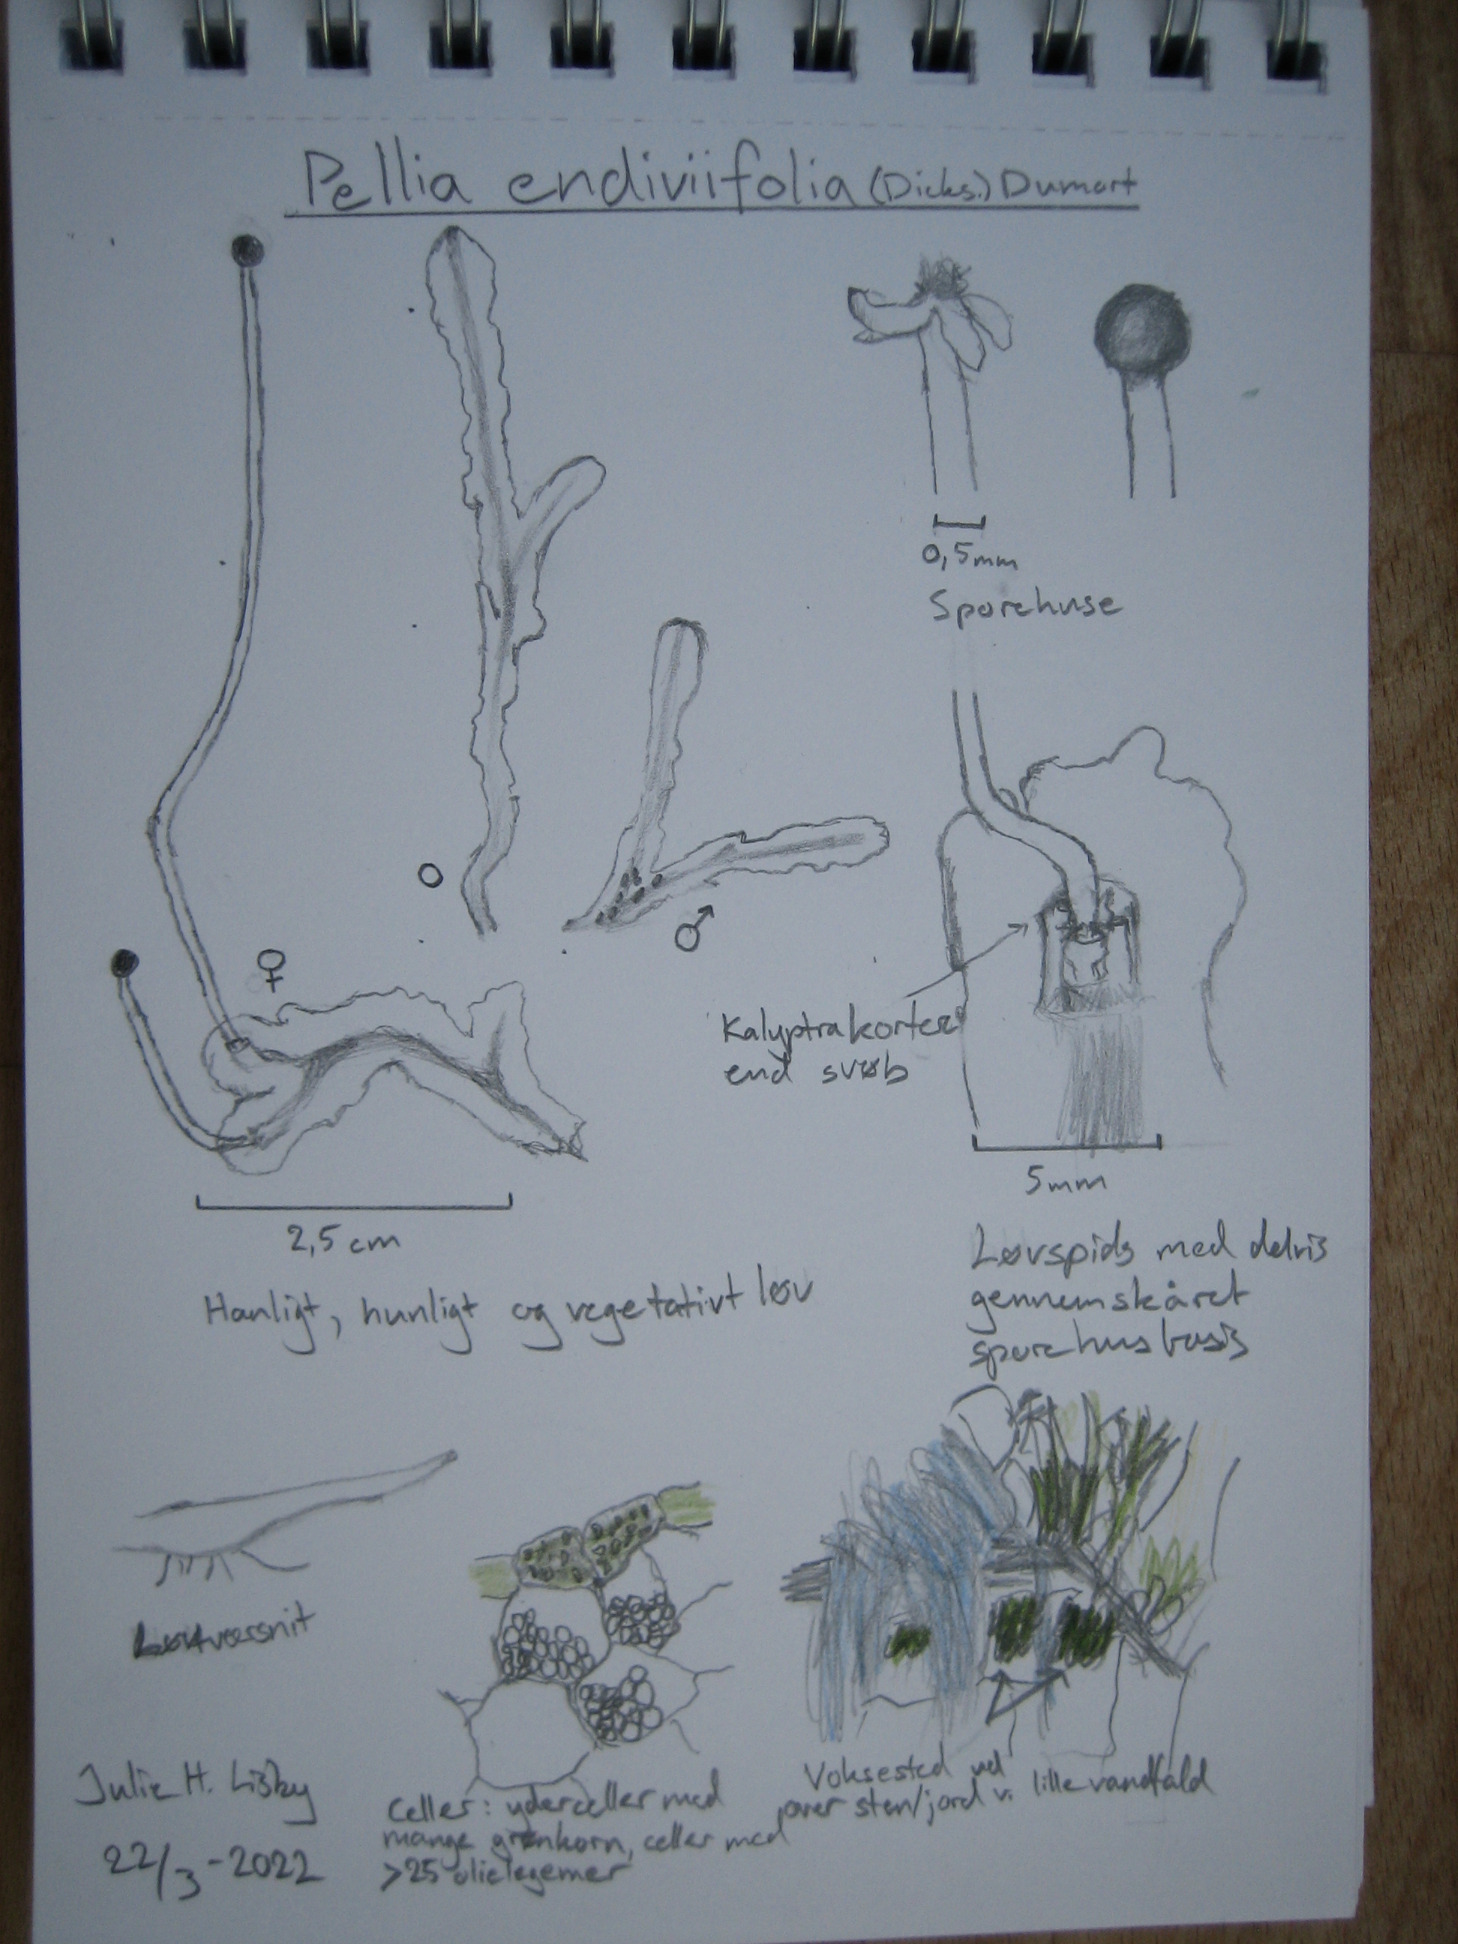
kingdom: Plantae
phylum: Marchantiophyta
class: Jungermanniopsida
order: Pelliales
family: Pelliaceae
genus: Apopellia
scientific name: Apopellia endiviifolia
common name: Fliget ribbeløv
